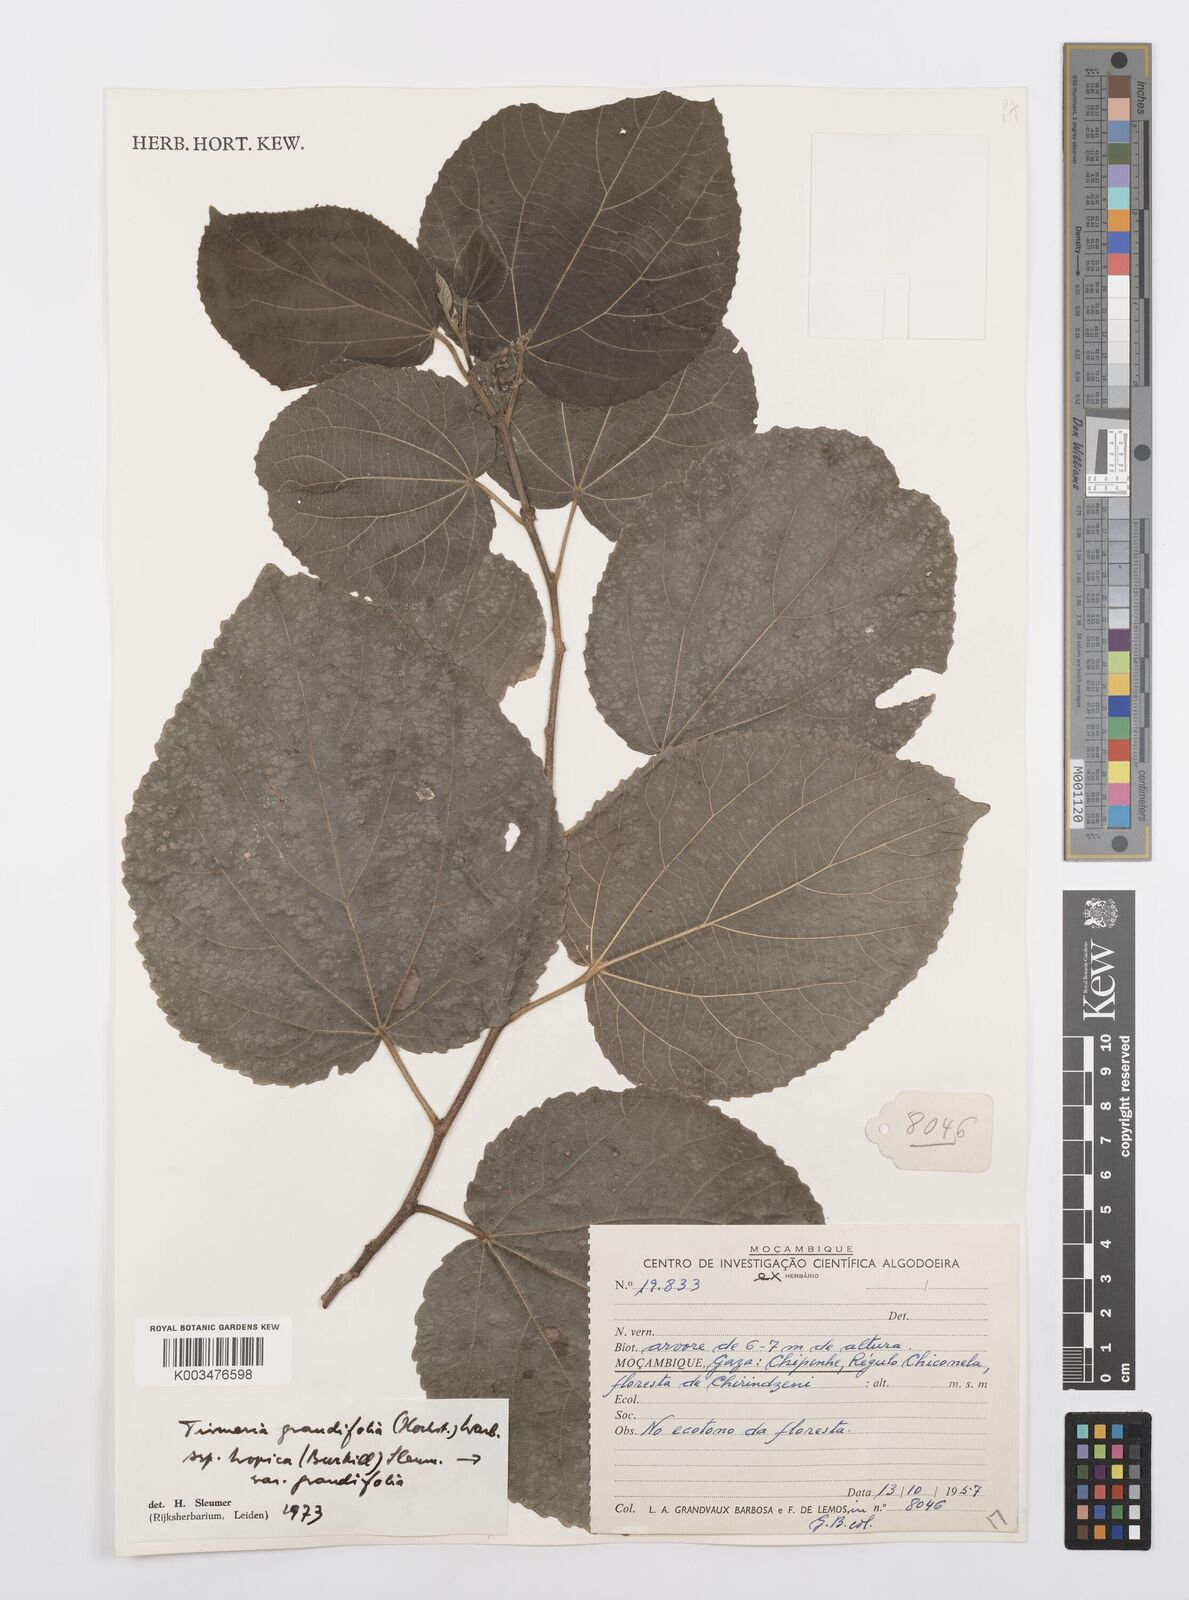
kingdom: Plantae
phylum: Tracheophyta
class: Magnoliopsida
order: Malpighiales
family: Salicaceae
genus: Trimeria
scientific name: Trimeria grandifolia
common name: Wild mulberry
